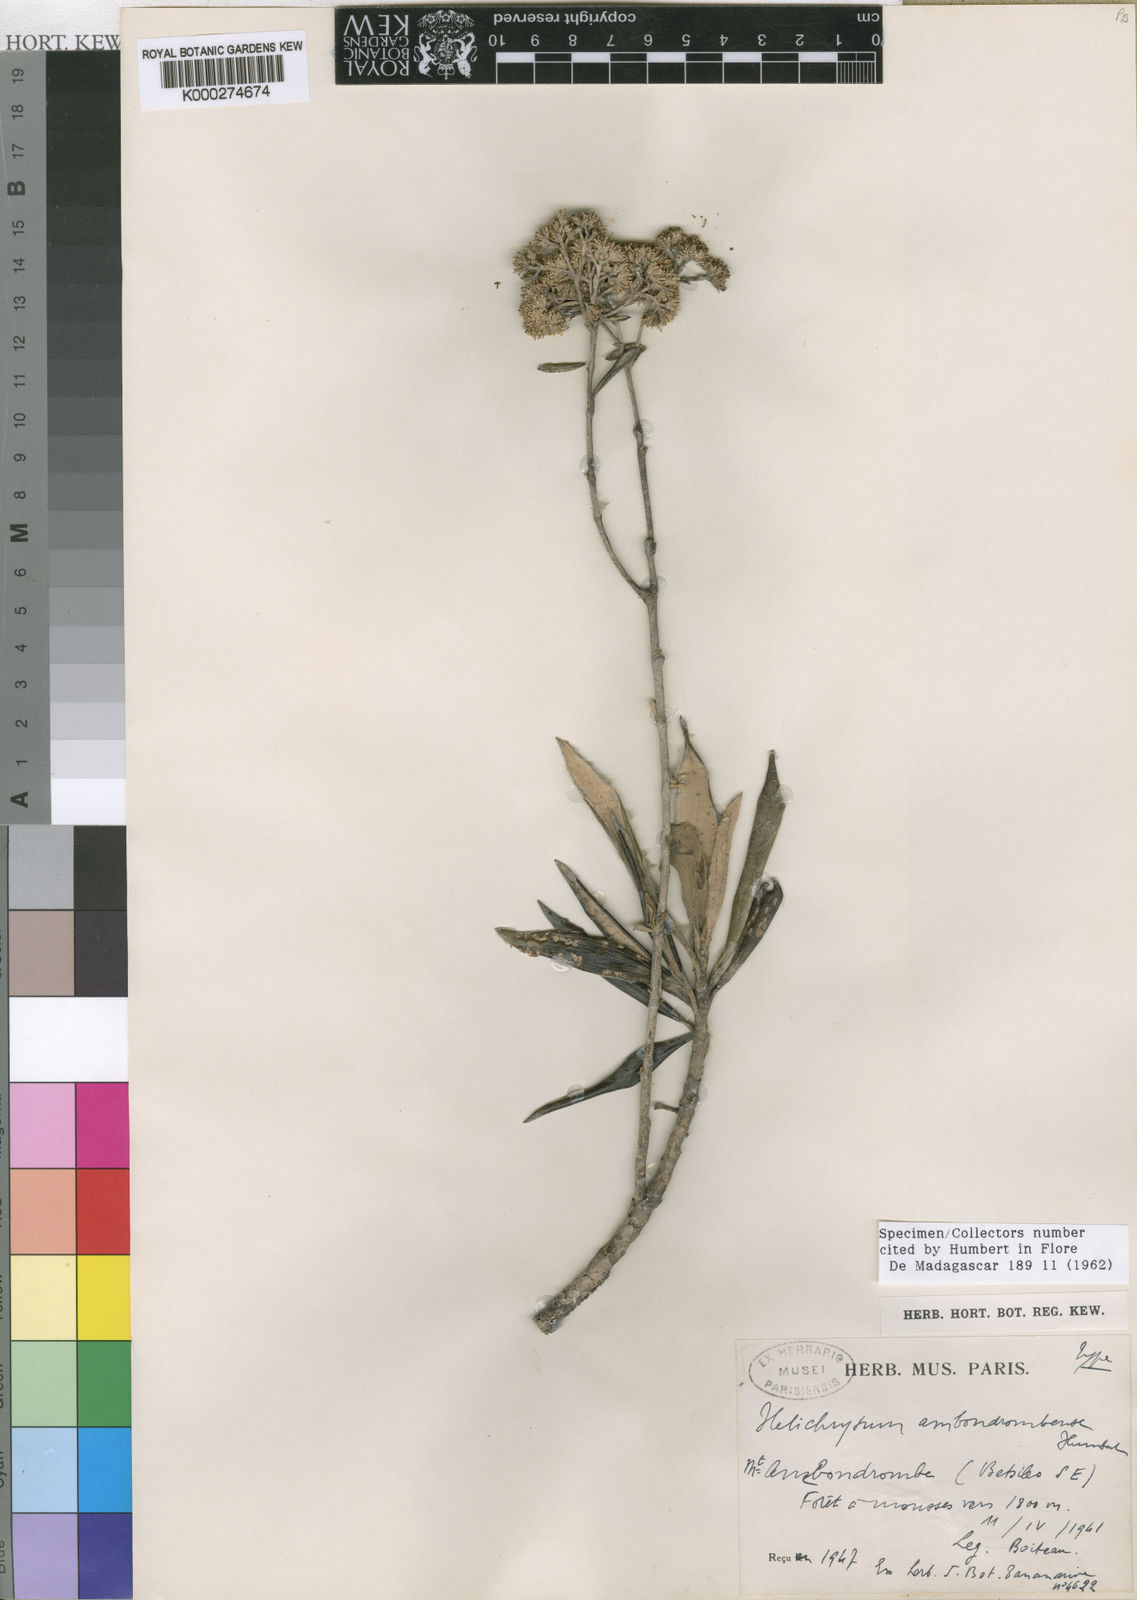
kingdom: Plantae
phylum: Tracheophyta
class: Magnoliopsida
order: Asterales
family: Asteraceae
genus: Helichrysum
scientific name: Helichrysum ambondrombeense
